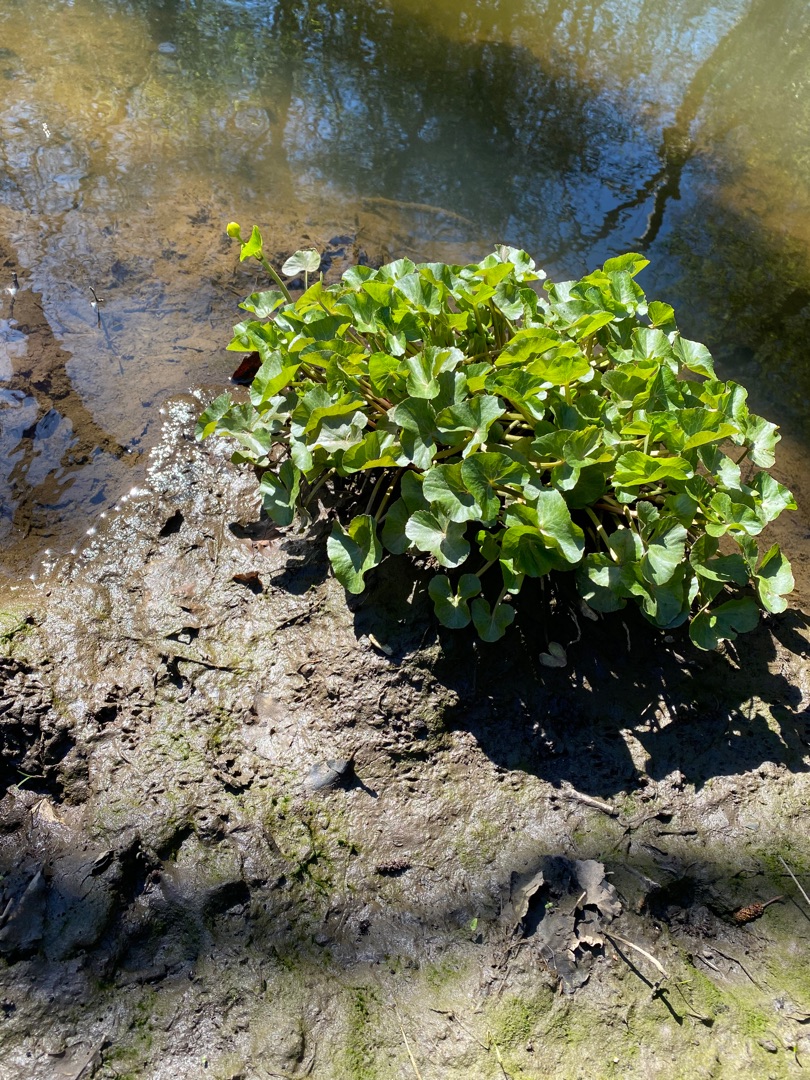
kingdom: Plantae
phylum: Tracheophyta
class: Magnoliopsida
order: Ranunculales
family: Ranunculaceae
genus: Caltha
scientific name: Caltha palustris
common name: Eng-kabbeleje
